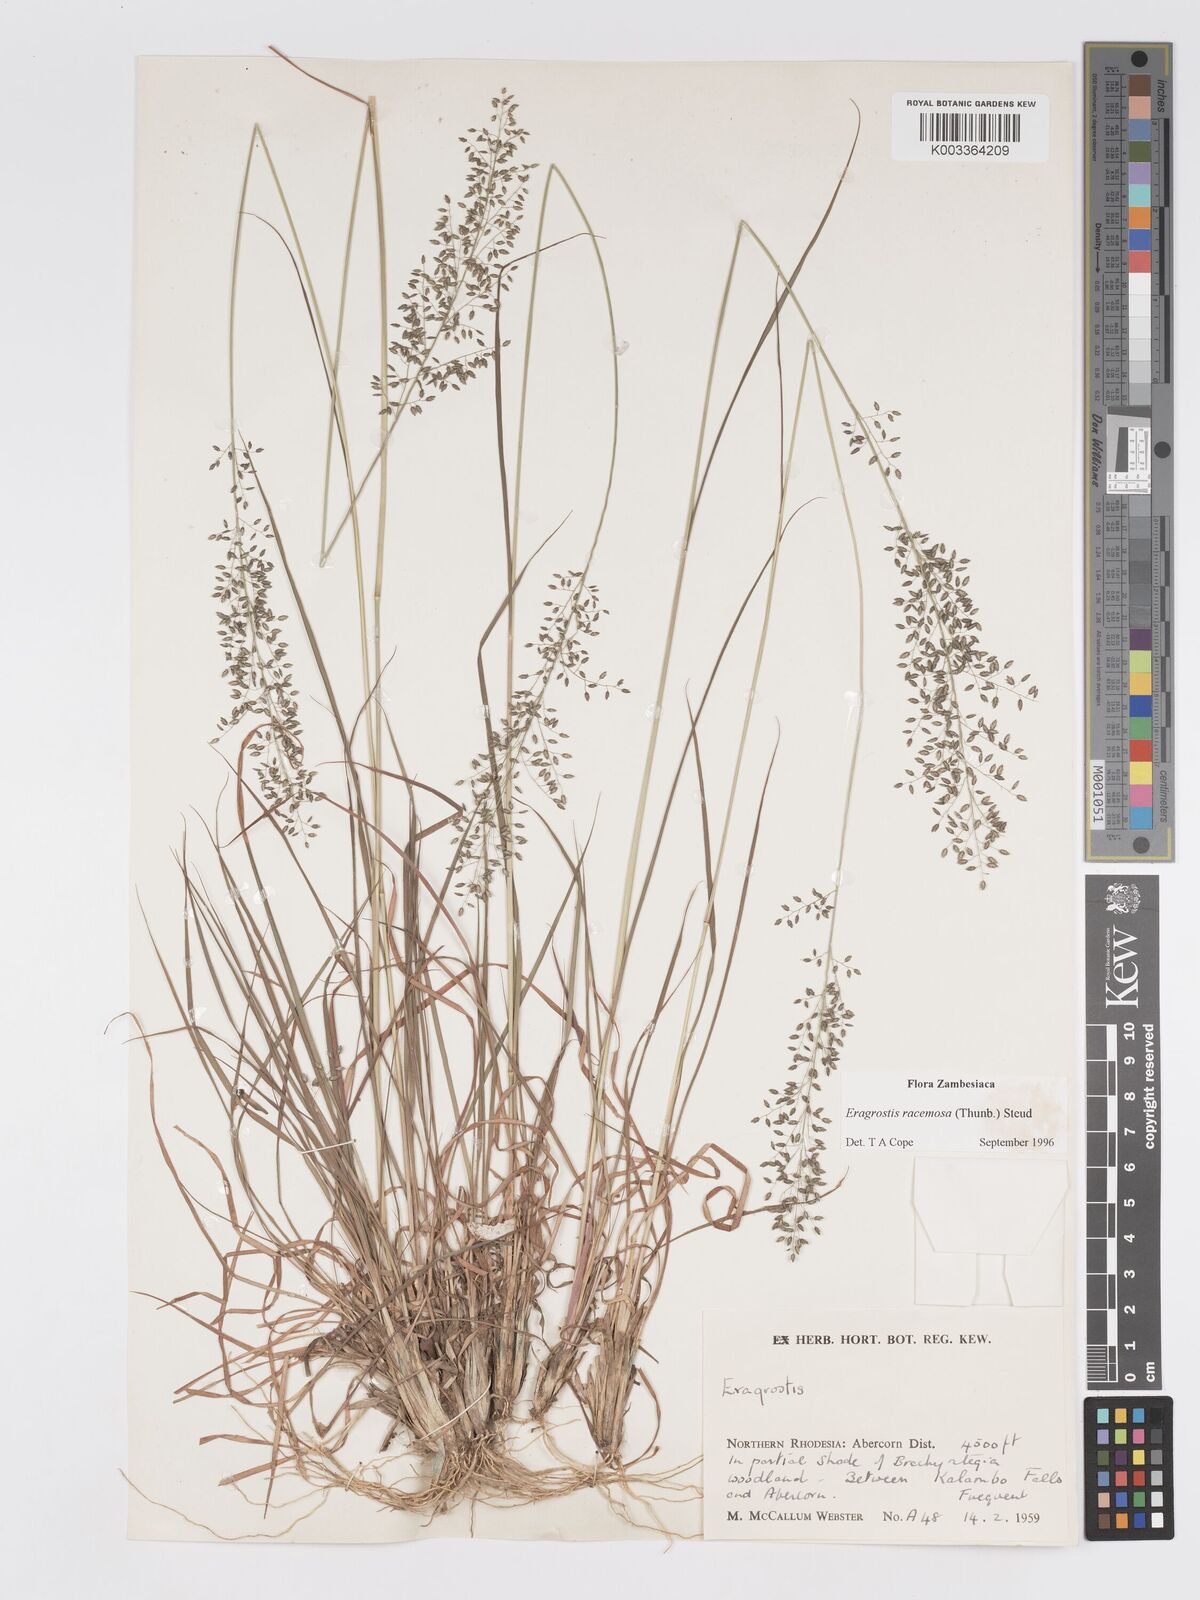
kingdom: Plantae
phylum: Tracheophyta
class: Liliopsida
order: Poales
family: Poaceae
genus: Eragrostis
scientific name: Eragrostis racemosa
